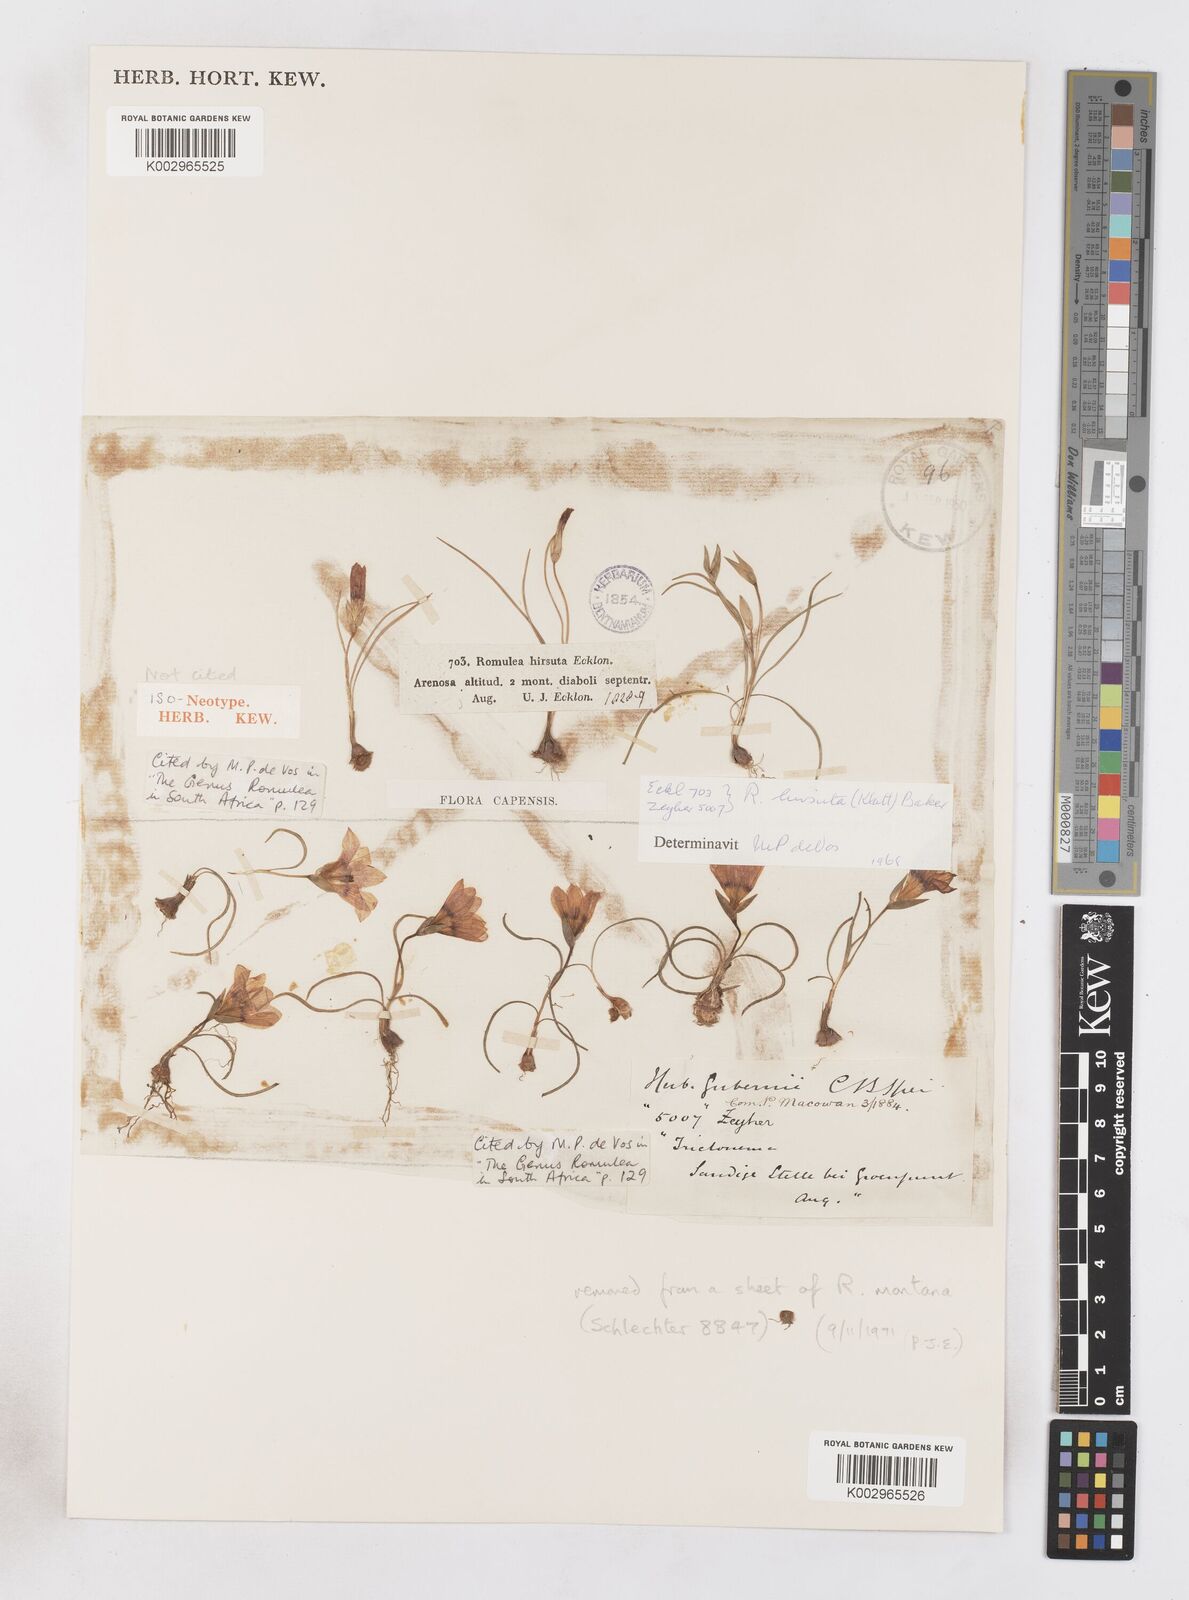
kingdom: Plantae
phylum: Tracheophyta
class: Liliopsida
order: Asparagales
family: Iridaceae
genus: Romulea
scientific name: Romulea hirsuta
